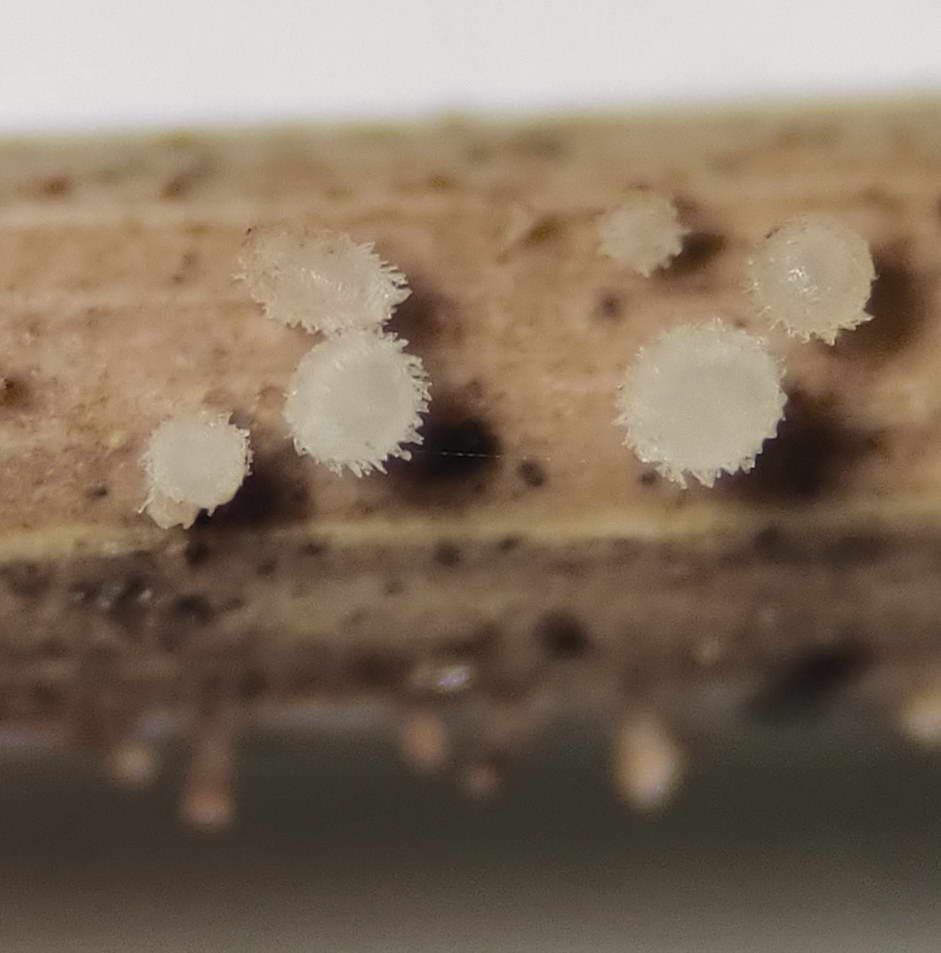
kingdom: Fungi
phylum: Ascomycota
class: Leotiomycetes
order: Helotiales
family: Lachnaceae
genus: Lachnum
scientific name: Lachnum apalum
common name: siv-frynseskive
